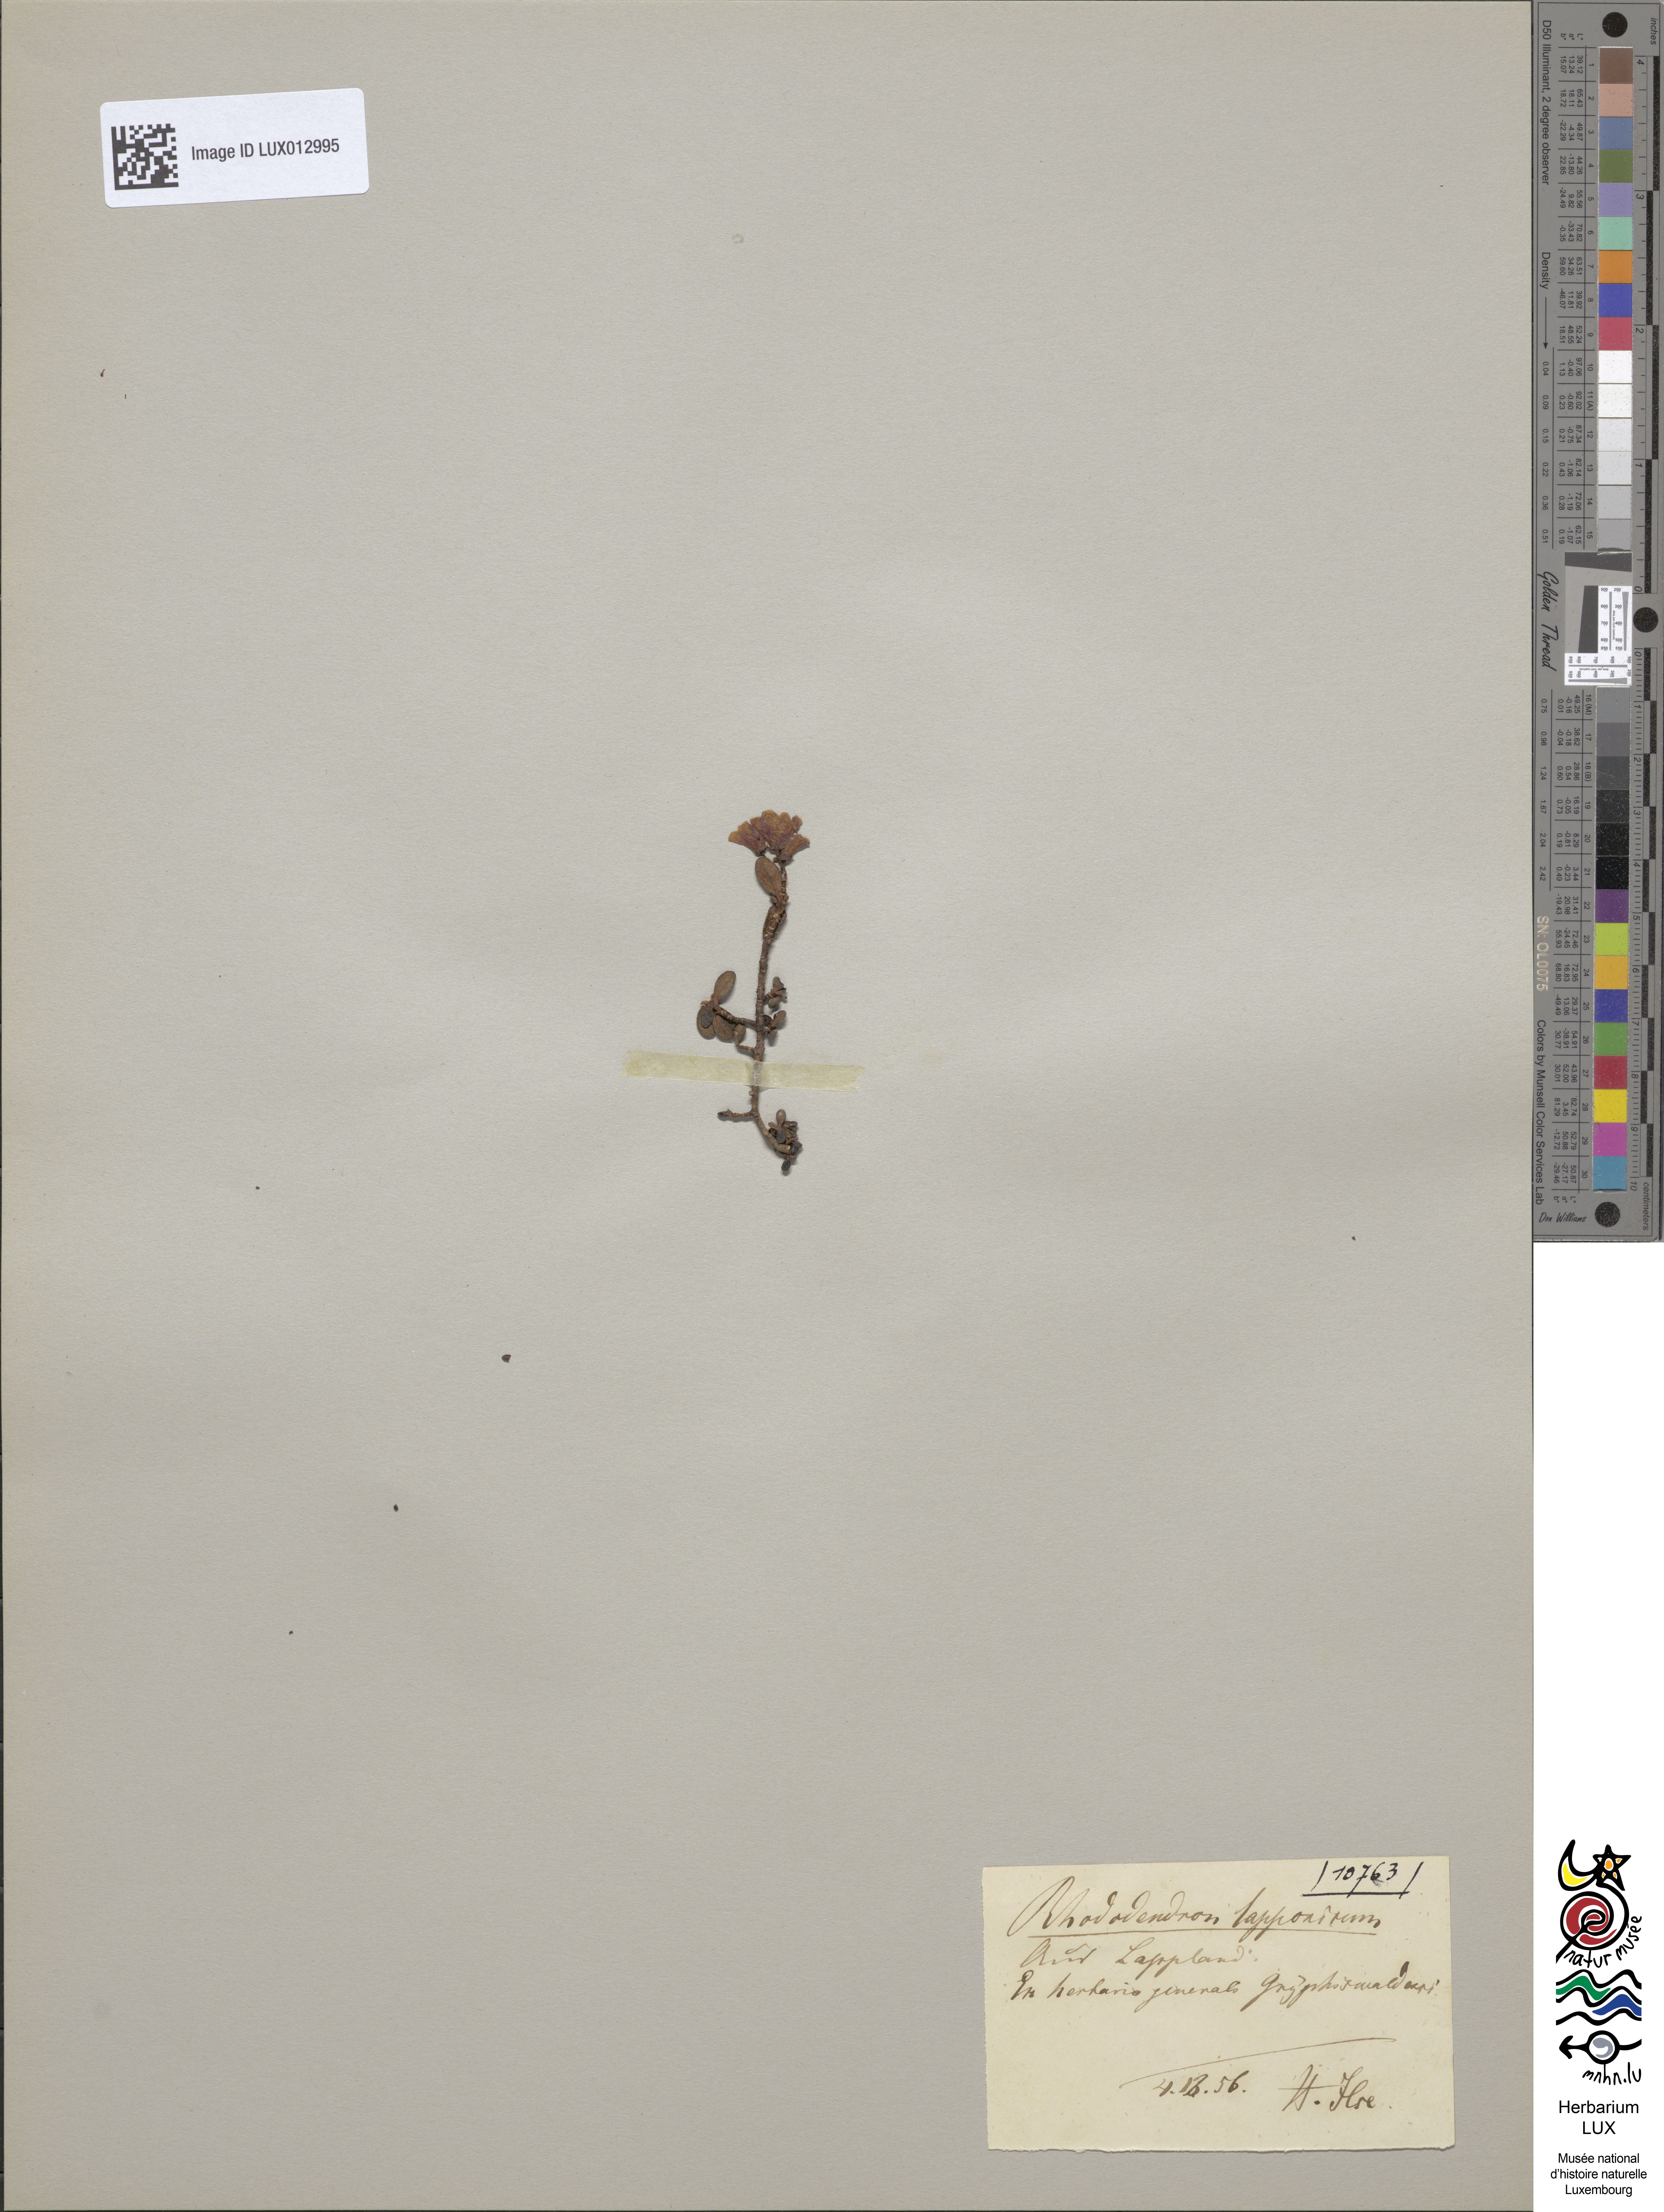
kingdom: Plantae
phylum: Tracheophyta
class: Magnoliopsida
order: Ericales
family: Ericaceae
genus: Rhododendron
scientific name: Rhododendron lapponicum
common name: Lapland rhododendron
